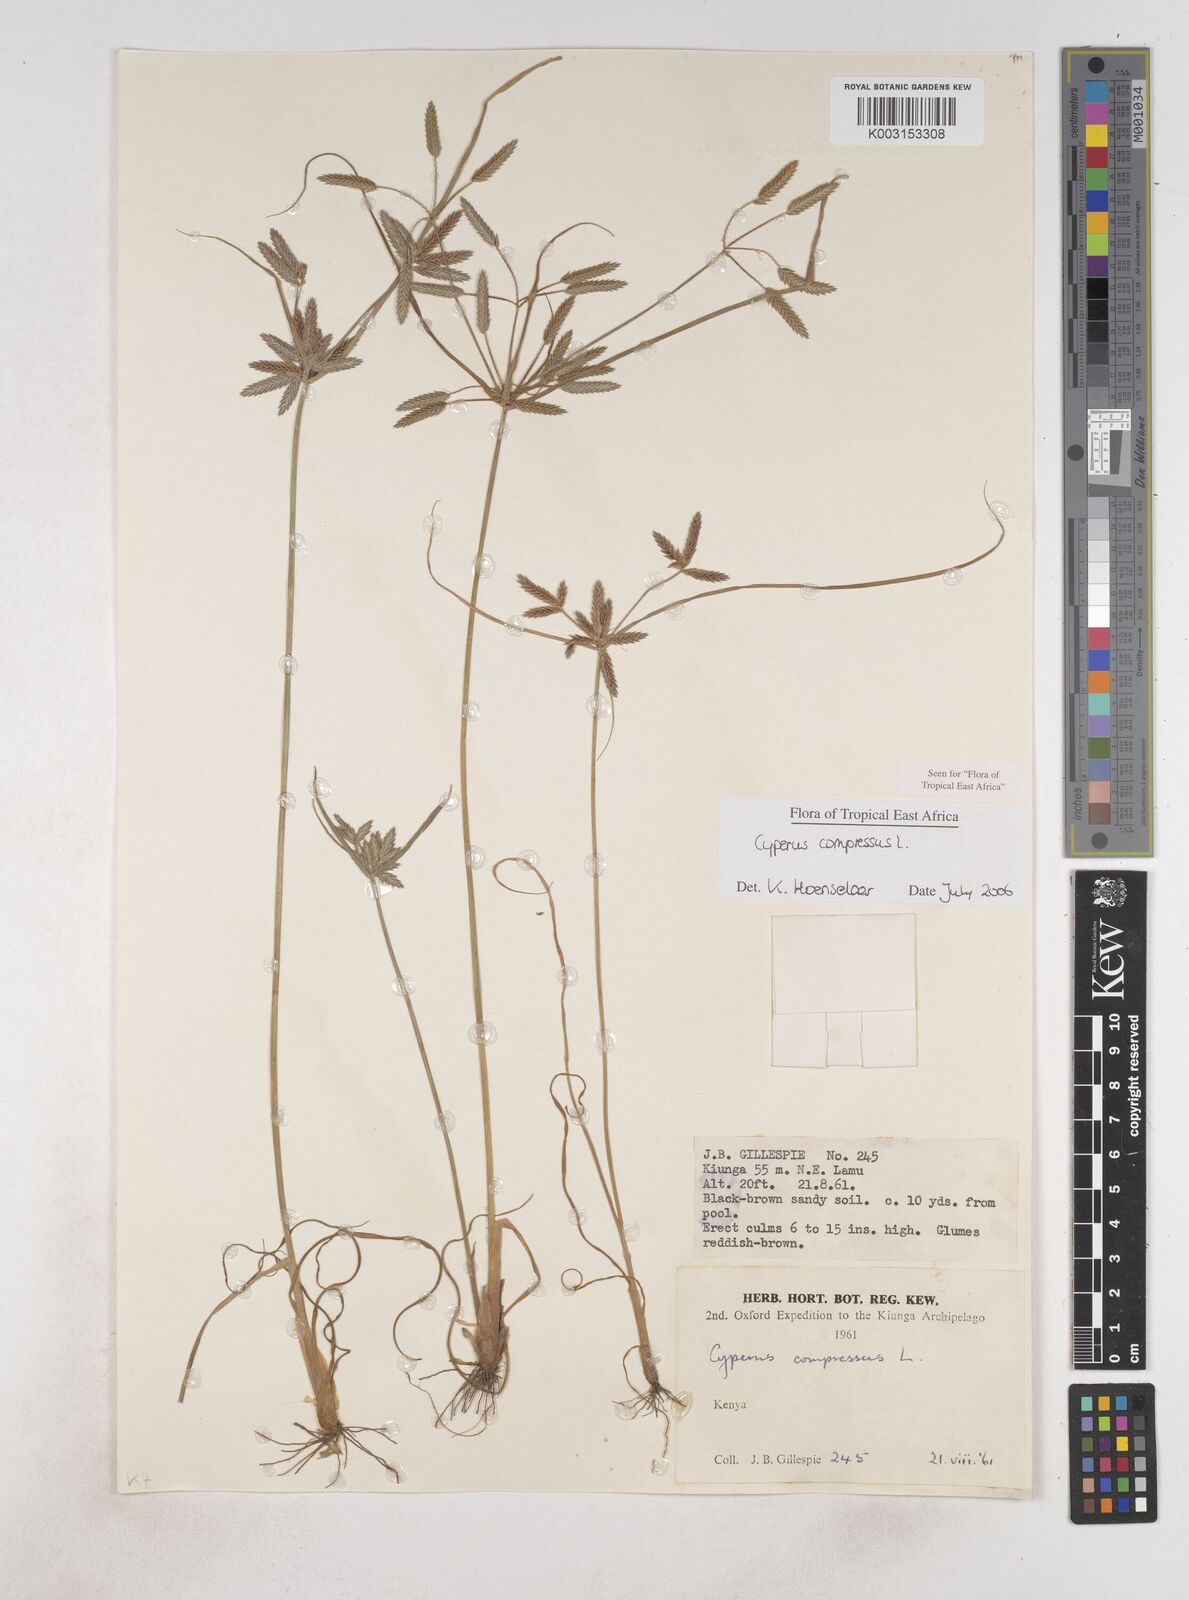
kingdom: Plantae
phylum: Tracheophyta
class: Liliopsida
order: Poales
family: Cyperaceae
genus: Cyperus
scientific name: Cyperus compressus
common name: Poorland flatsedge
